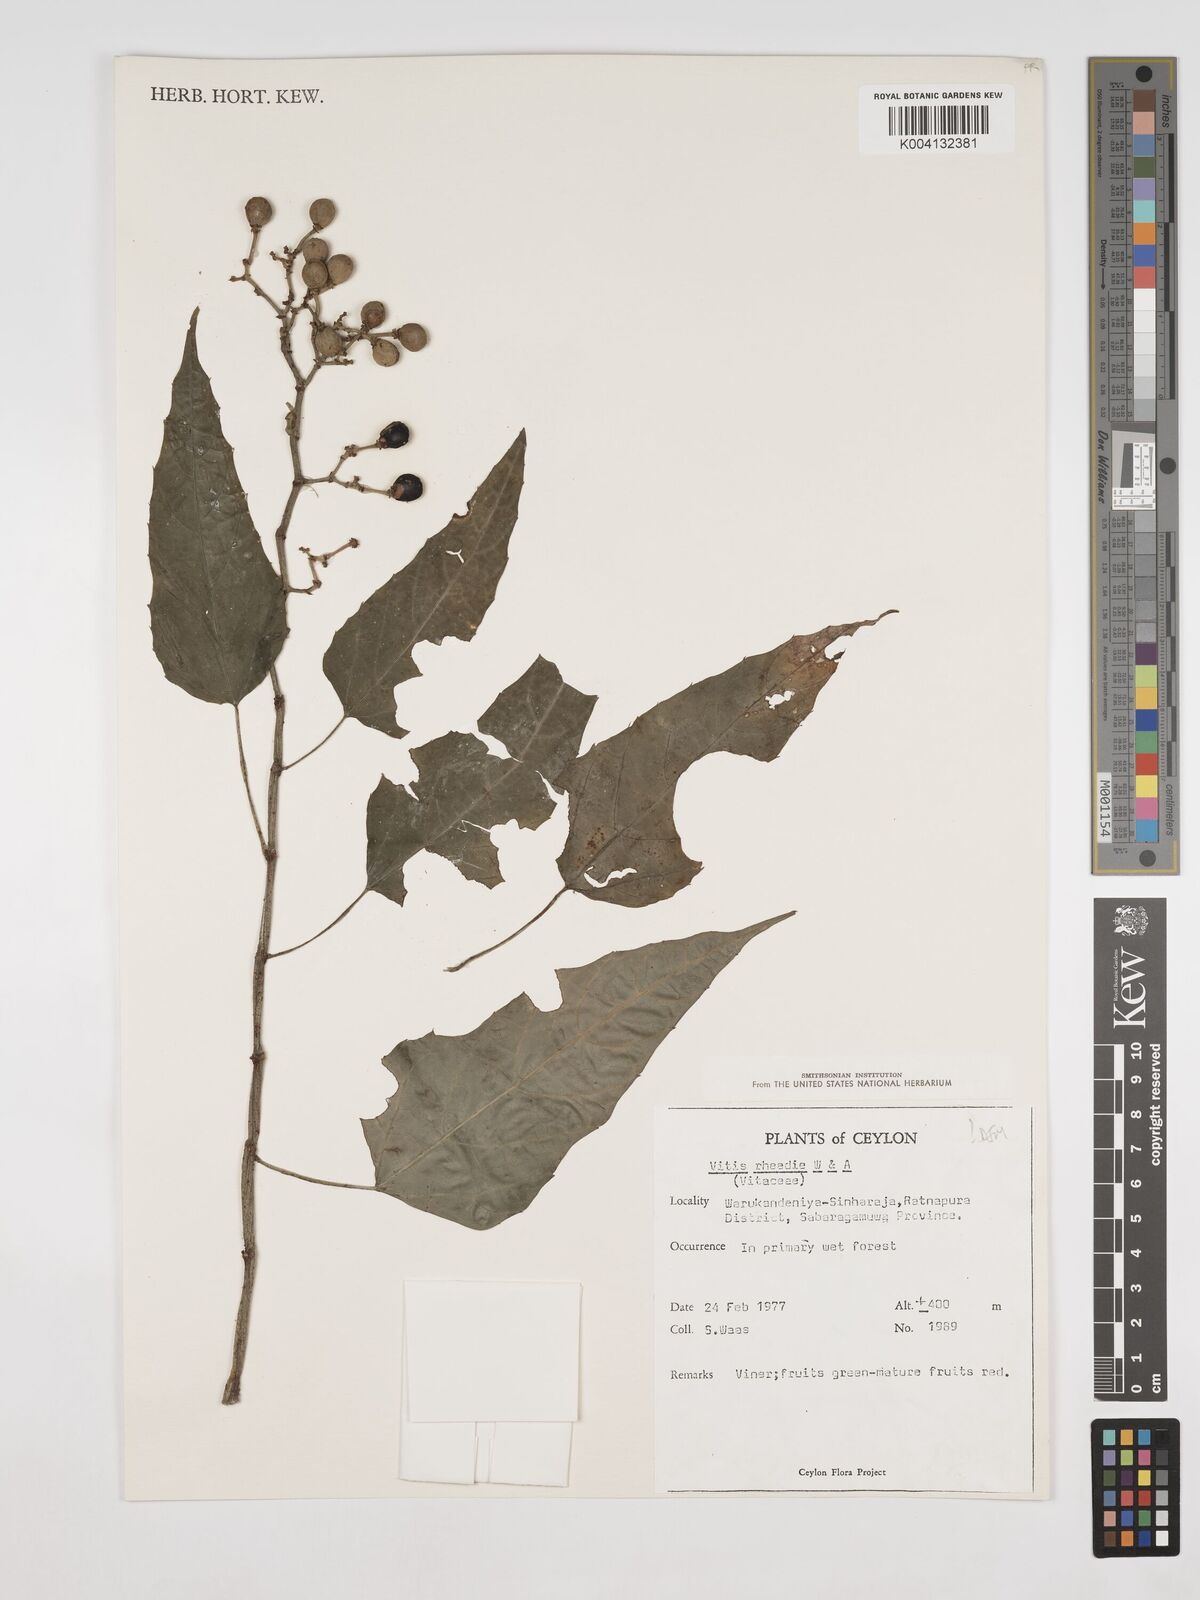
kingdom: Plantae
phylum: Tracheophyta
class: Magnoliopsida
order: Vitales
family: Vitaceae
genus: Cissus
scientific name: Cissus trilobata
